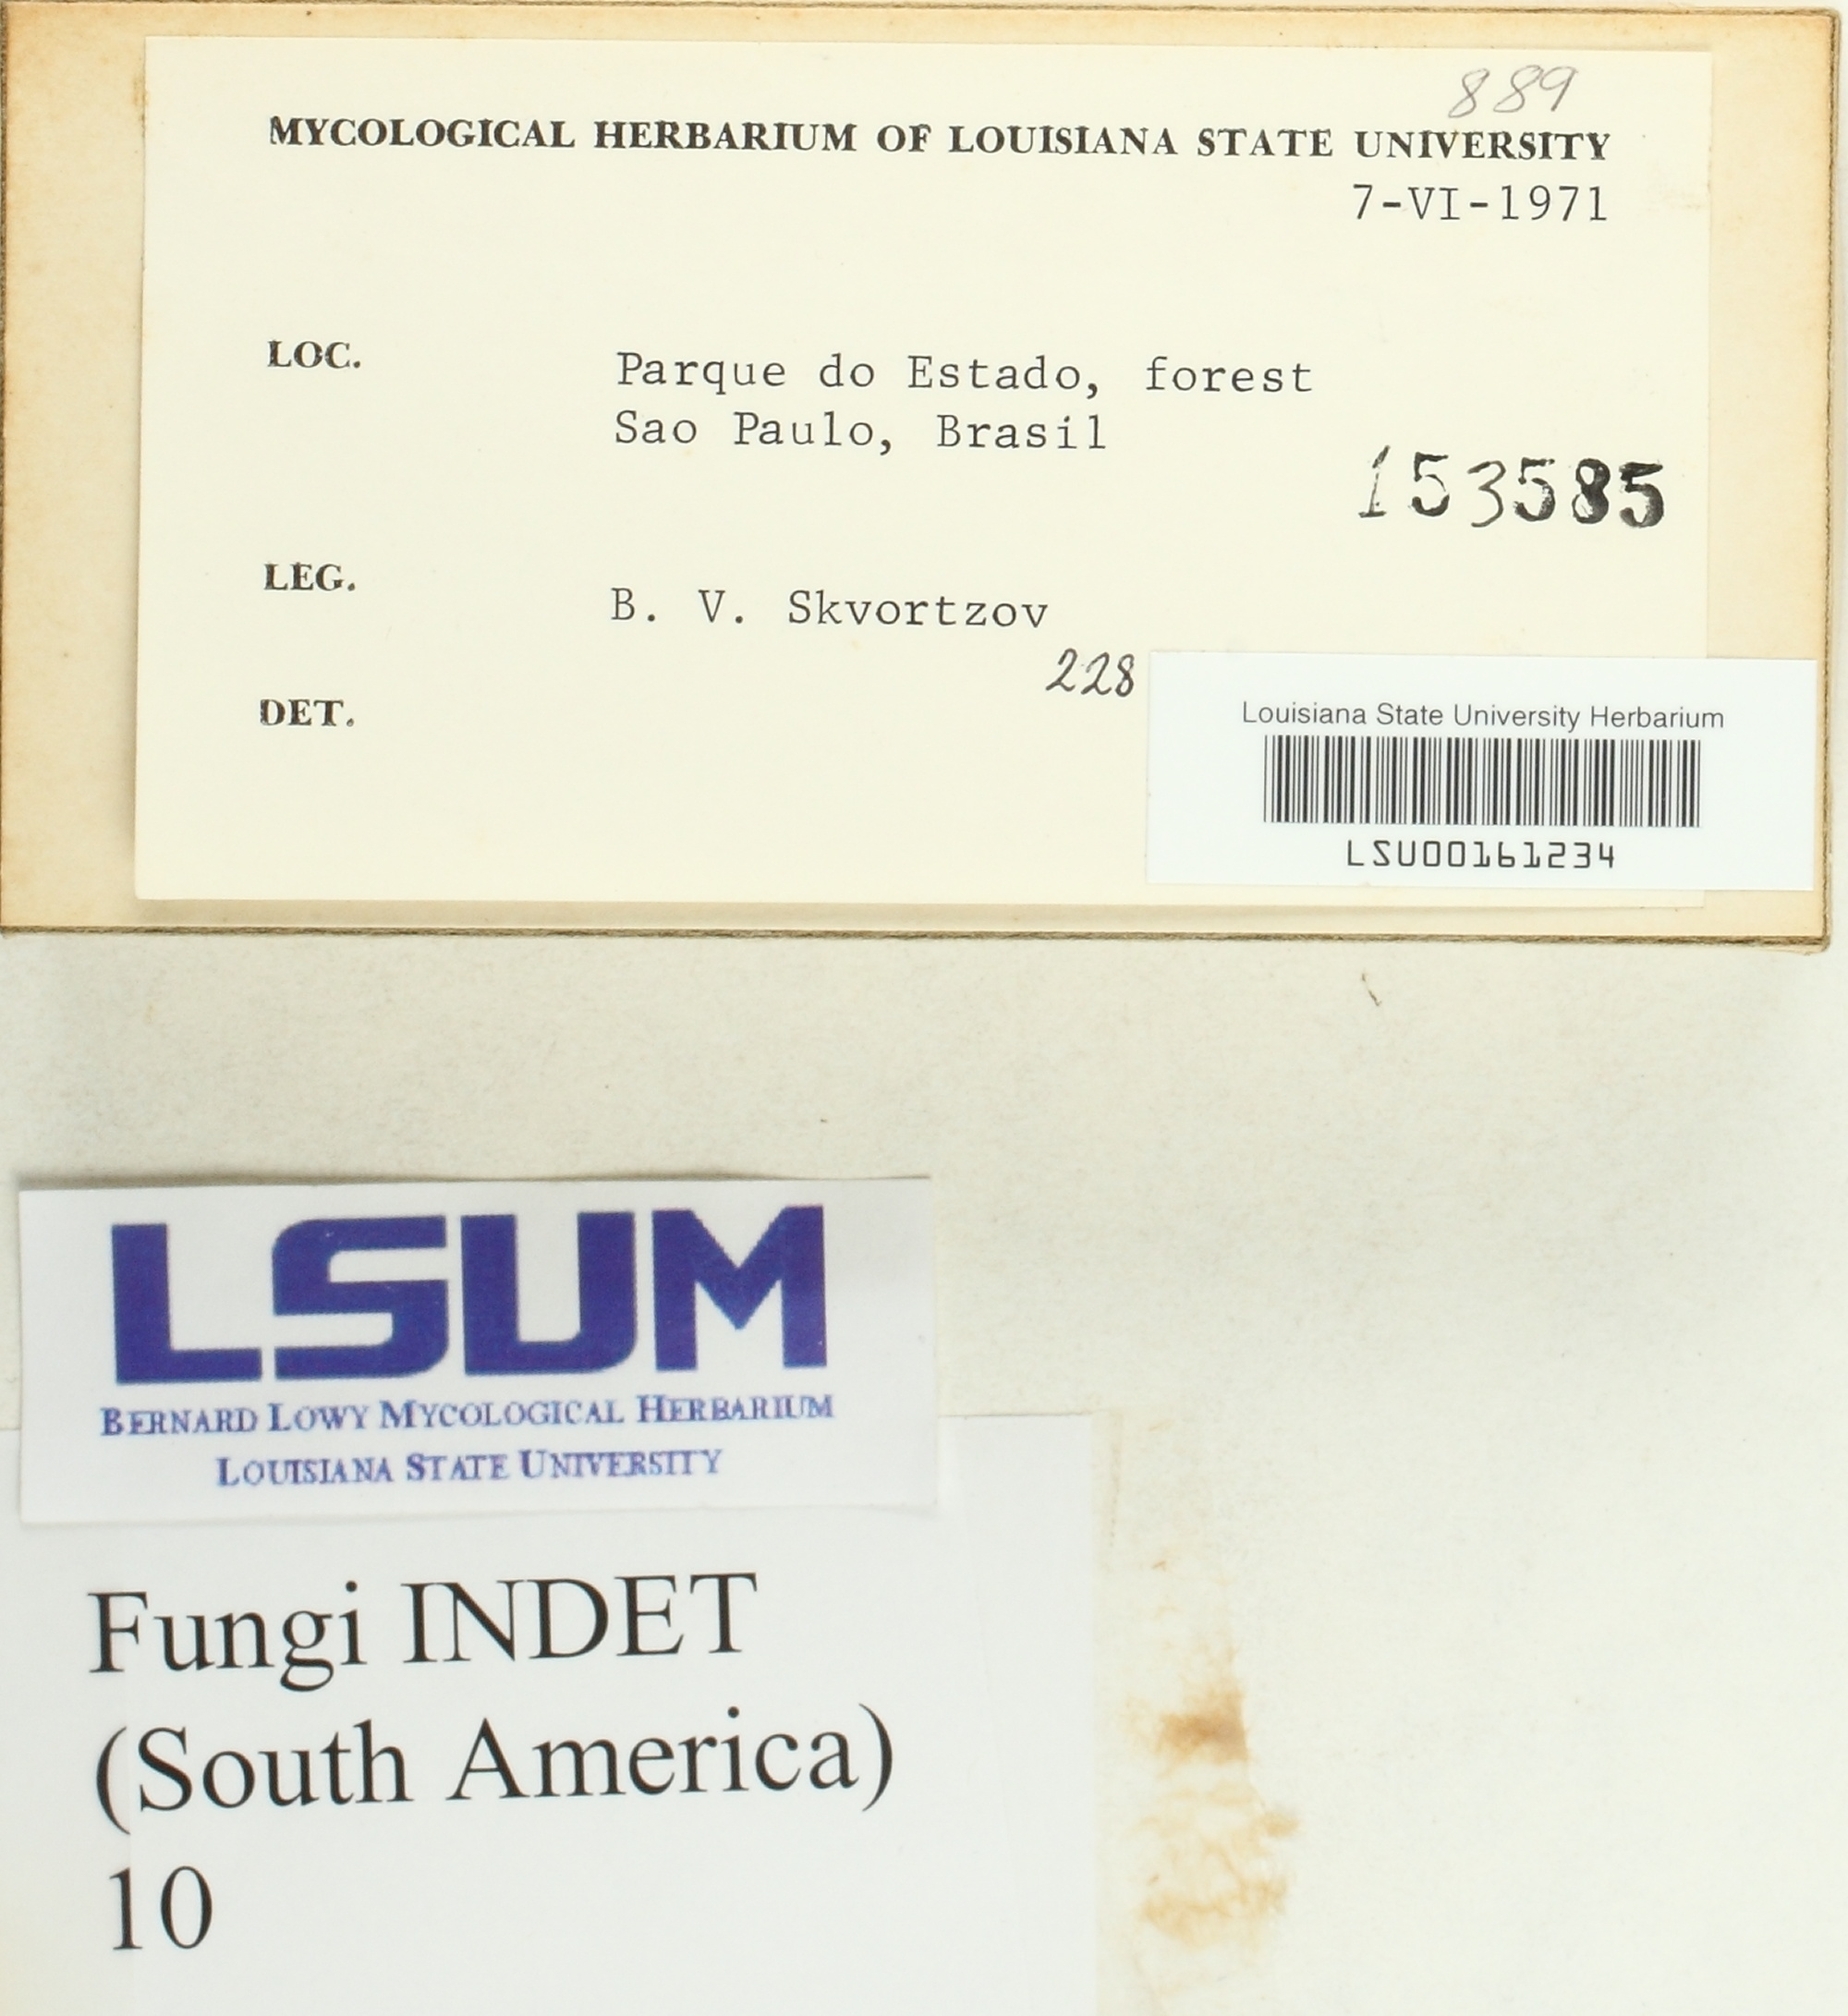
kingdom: Fungi
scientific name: Fungi
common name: Fungi
